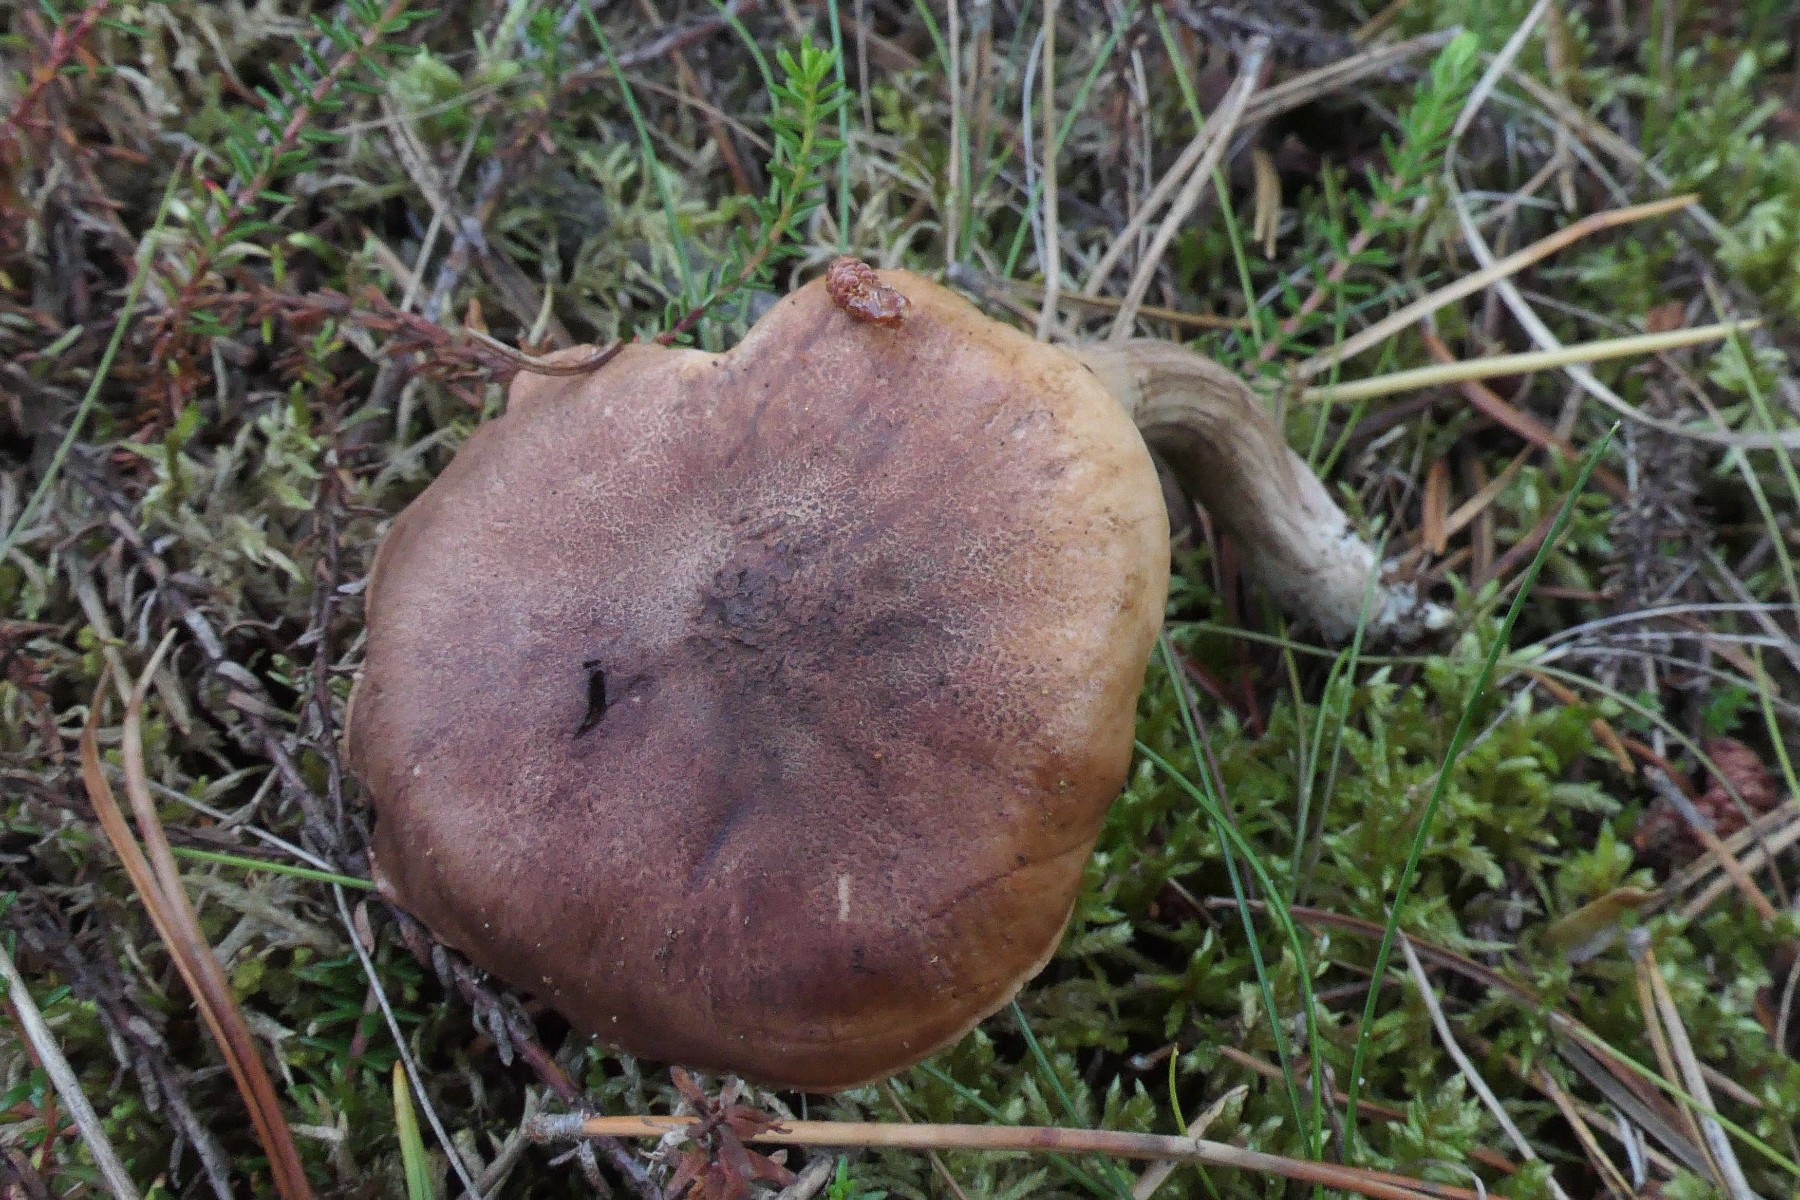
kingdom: Fungi
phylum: Basidiomycota
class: Agaricomycetes
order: Agaricales
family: Tricholomataceae
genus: Tricholoma
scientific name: Tricholoma fulvum
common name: birke-ridderhat
